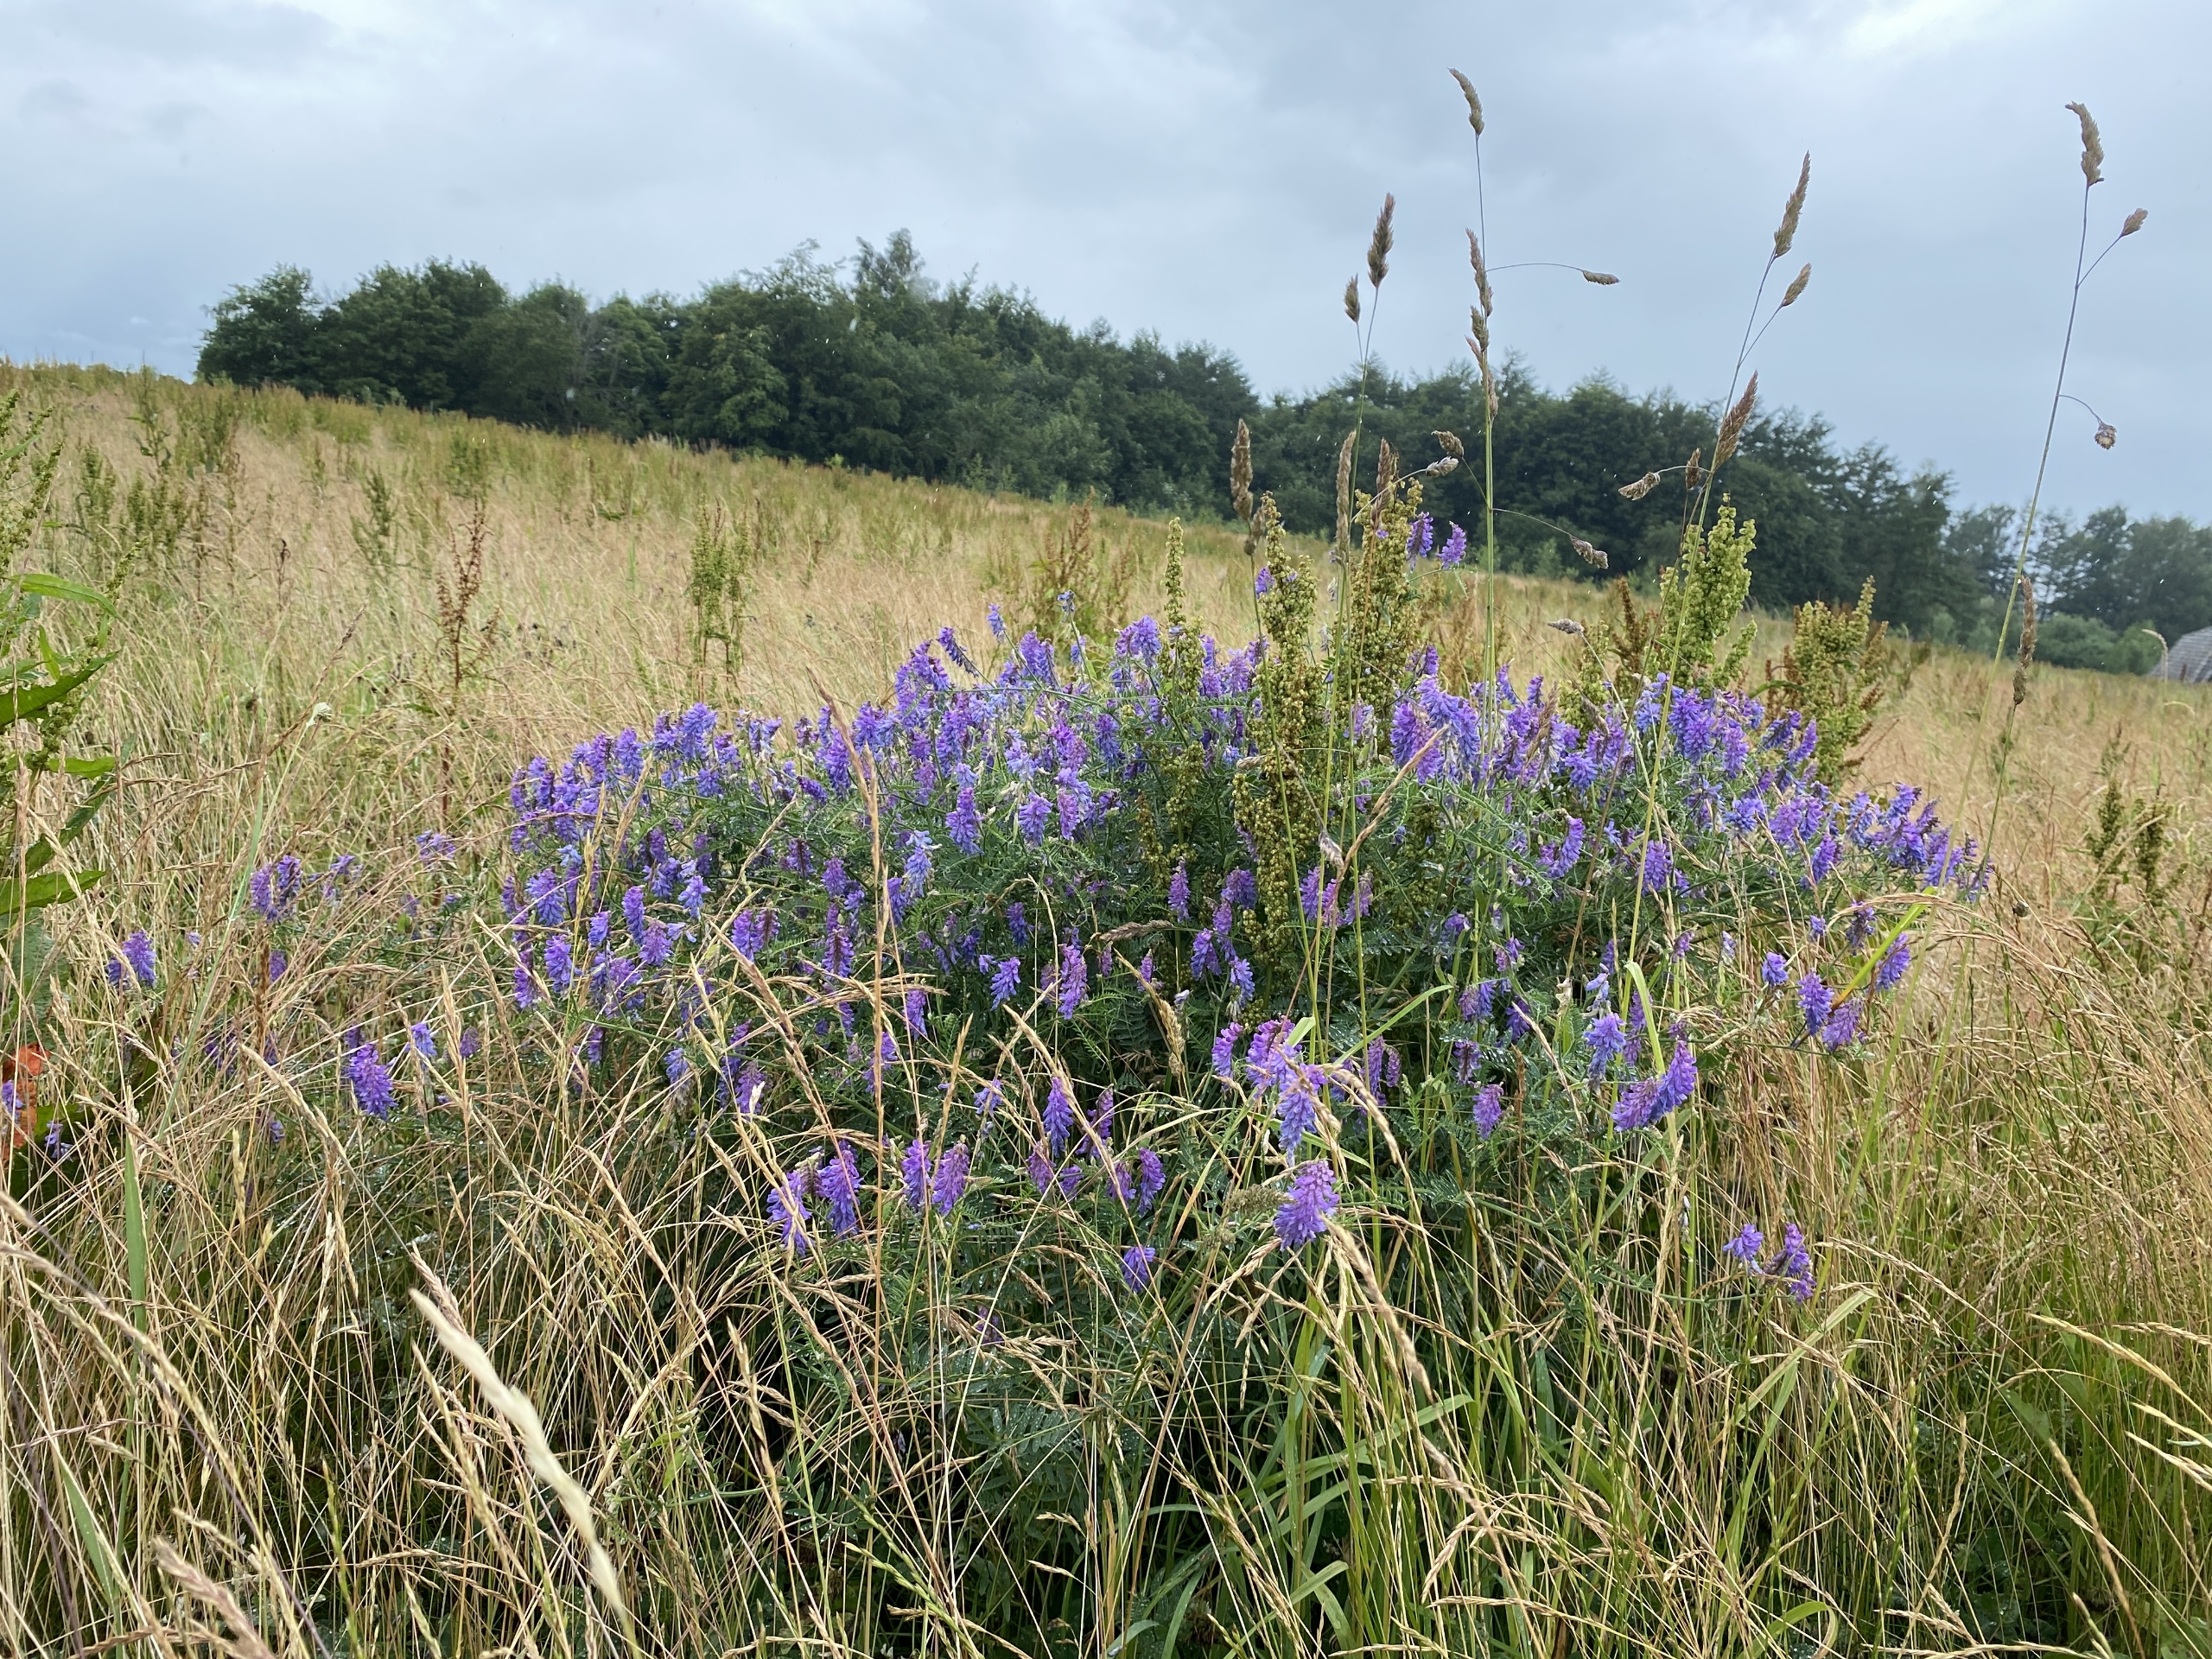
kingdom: Plantae
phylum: Tracheophyta
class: Magnoliopsida
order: Fabales
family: Fabaceae
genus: Vicia
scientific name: Vicia cracca
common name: Muse-vikke
